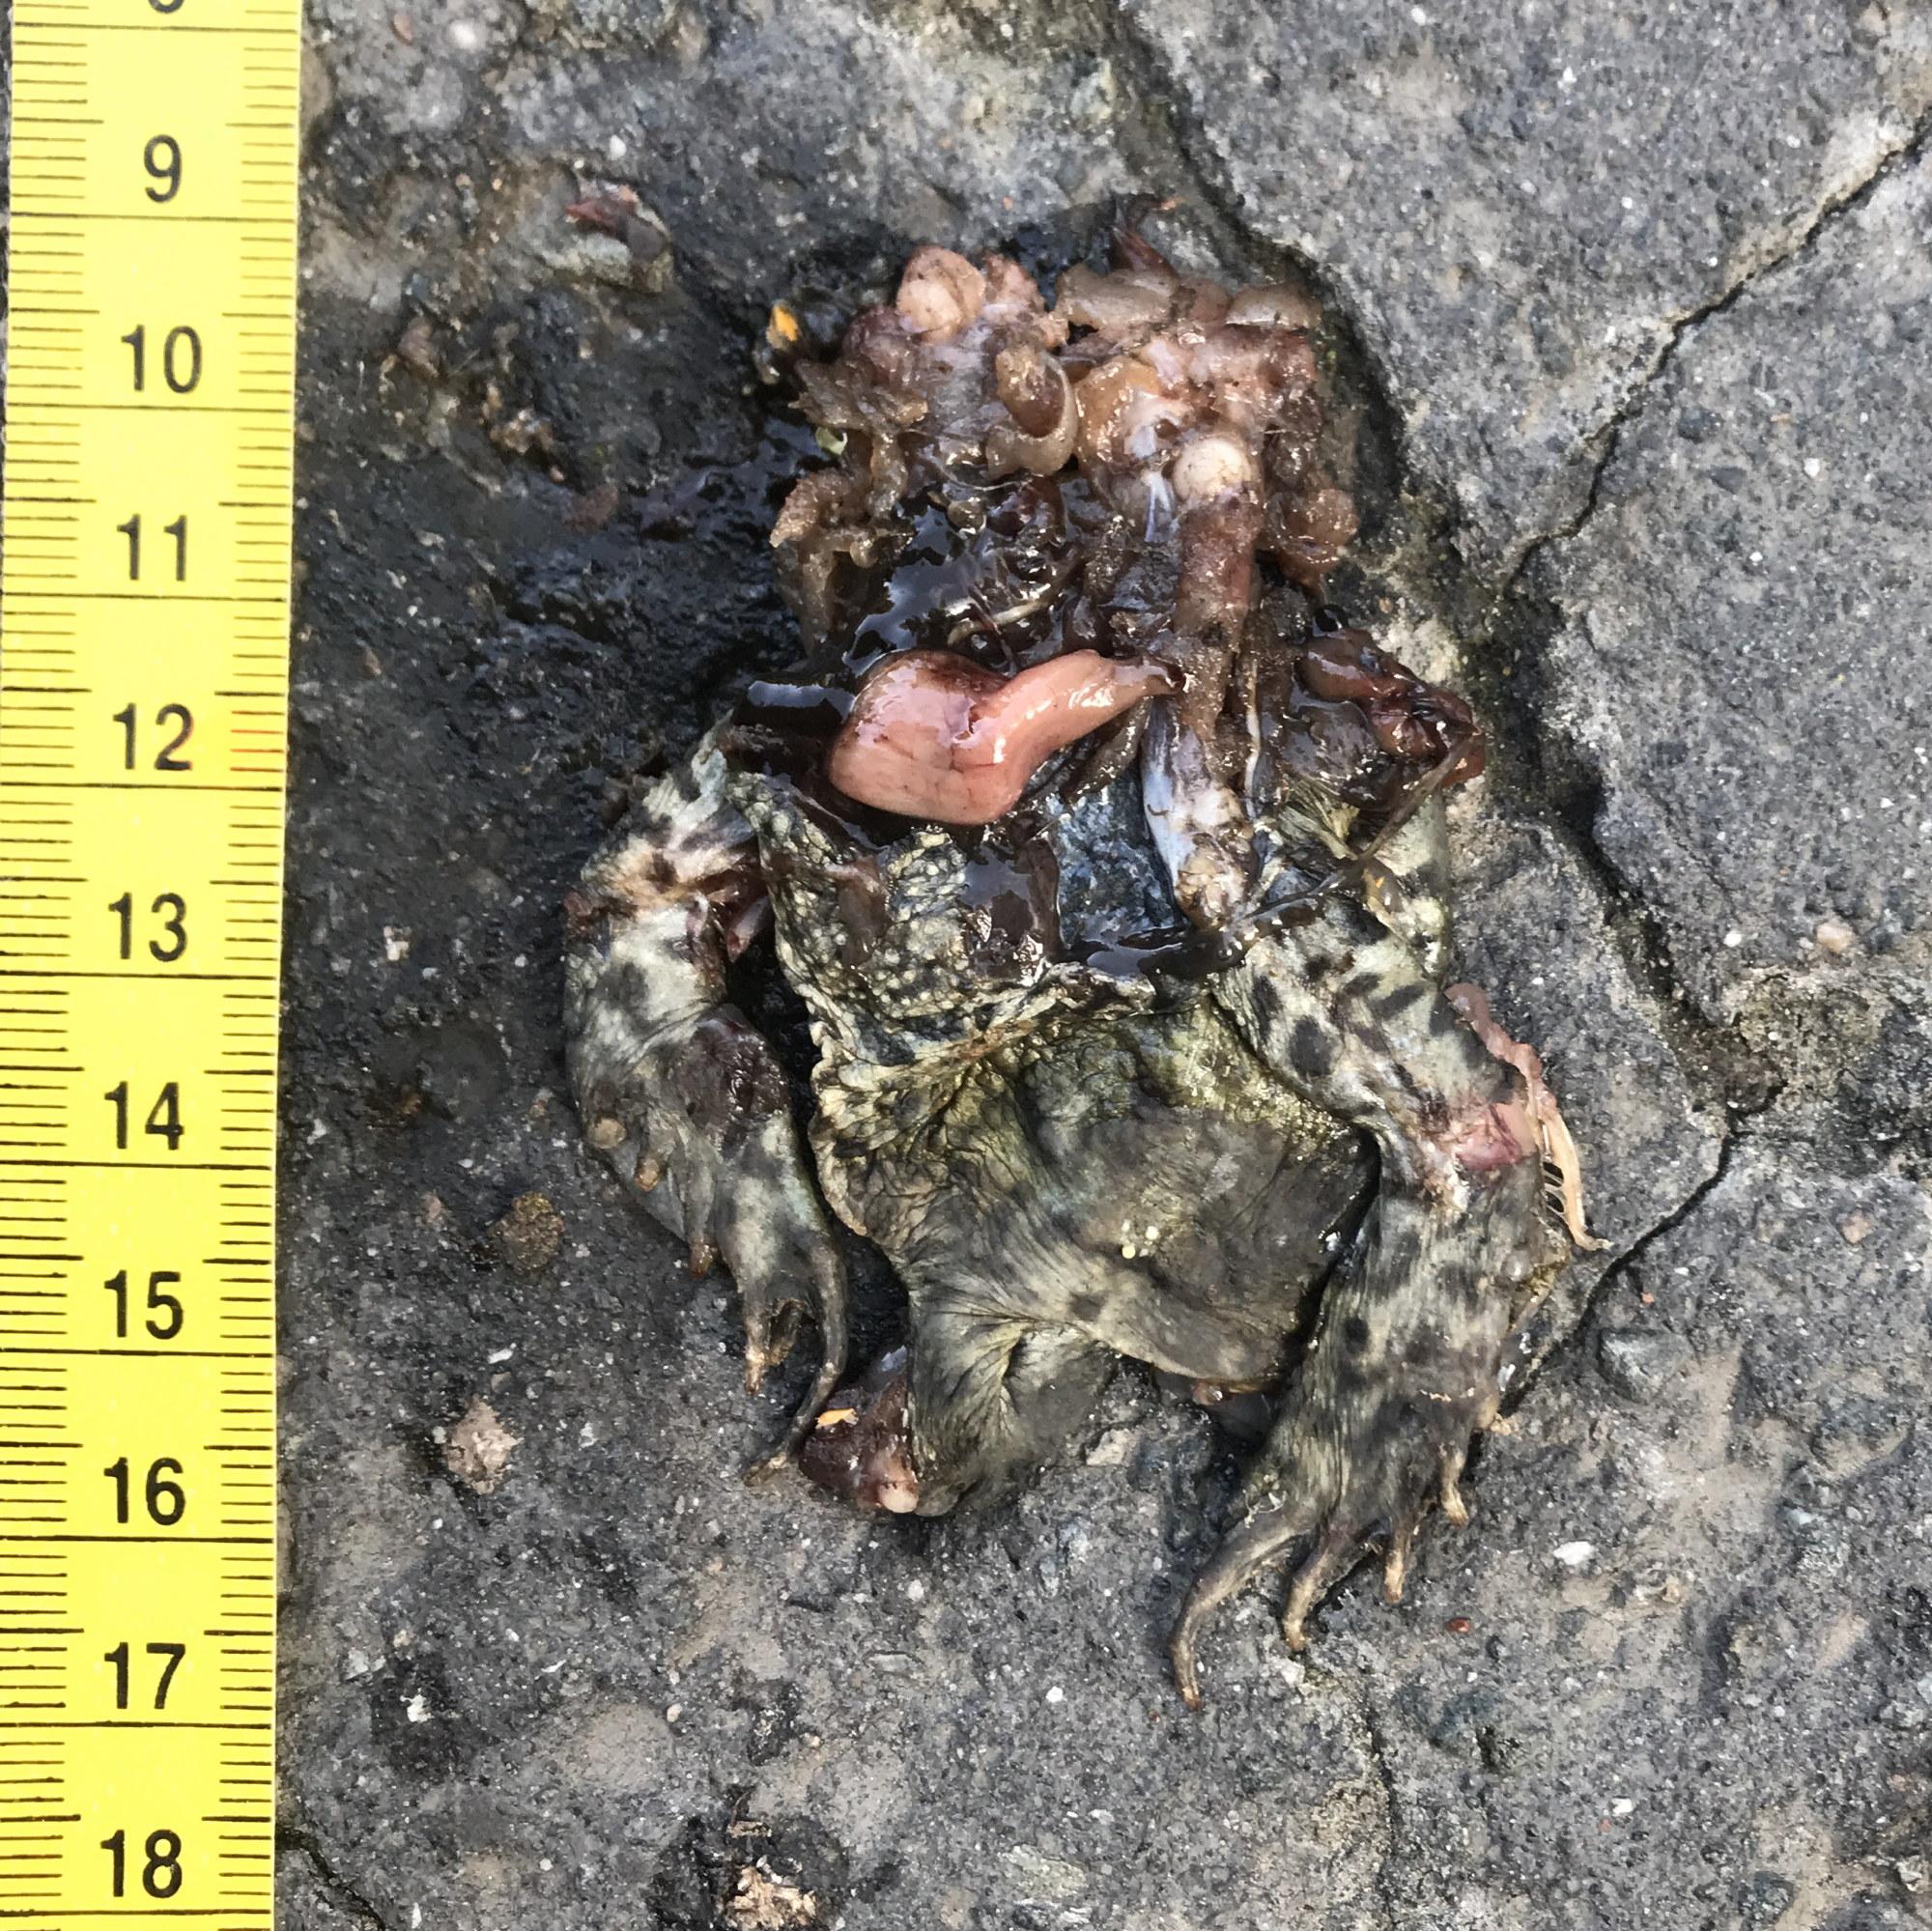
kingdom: Animalia
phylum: Chordata
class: Amphibia
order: Anura
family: Bufonidae
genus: Bufo
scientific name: Bufo bufo
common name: Common toad
